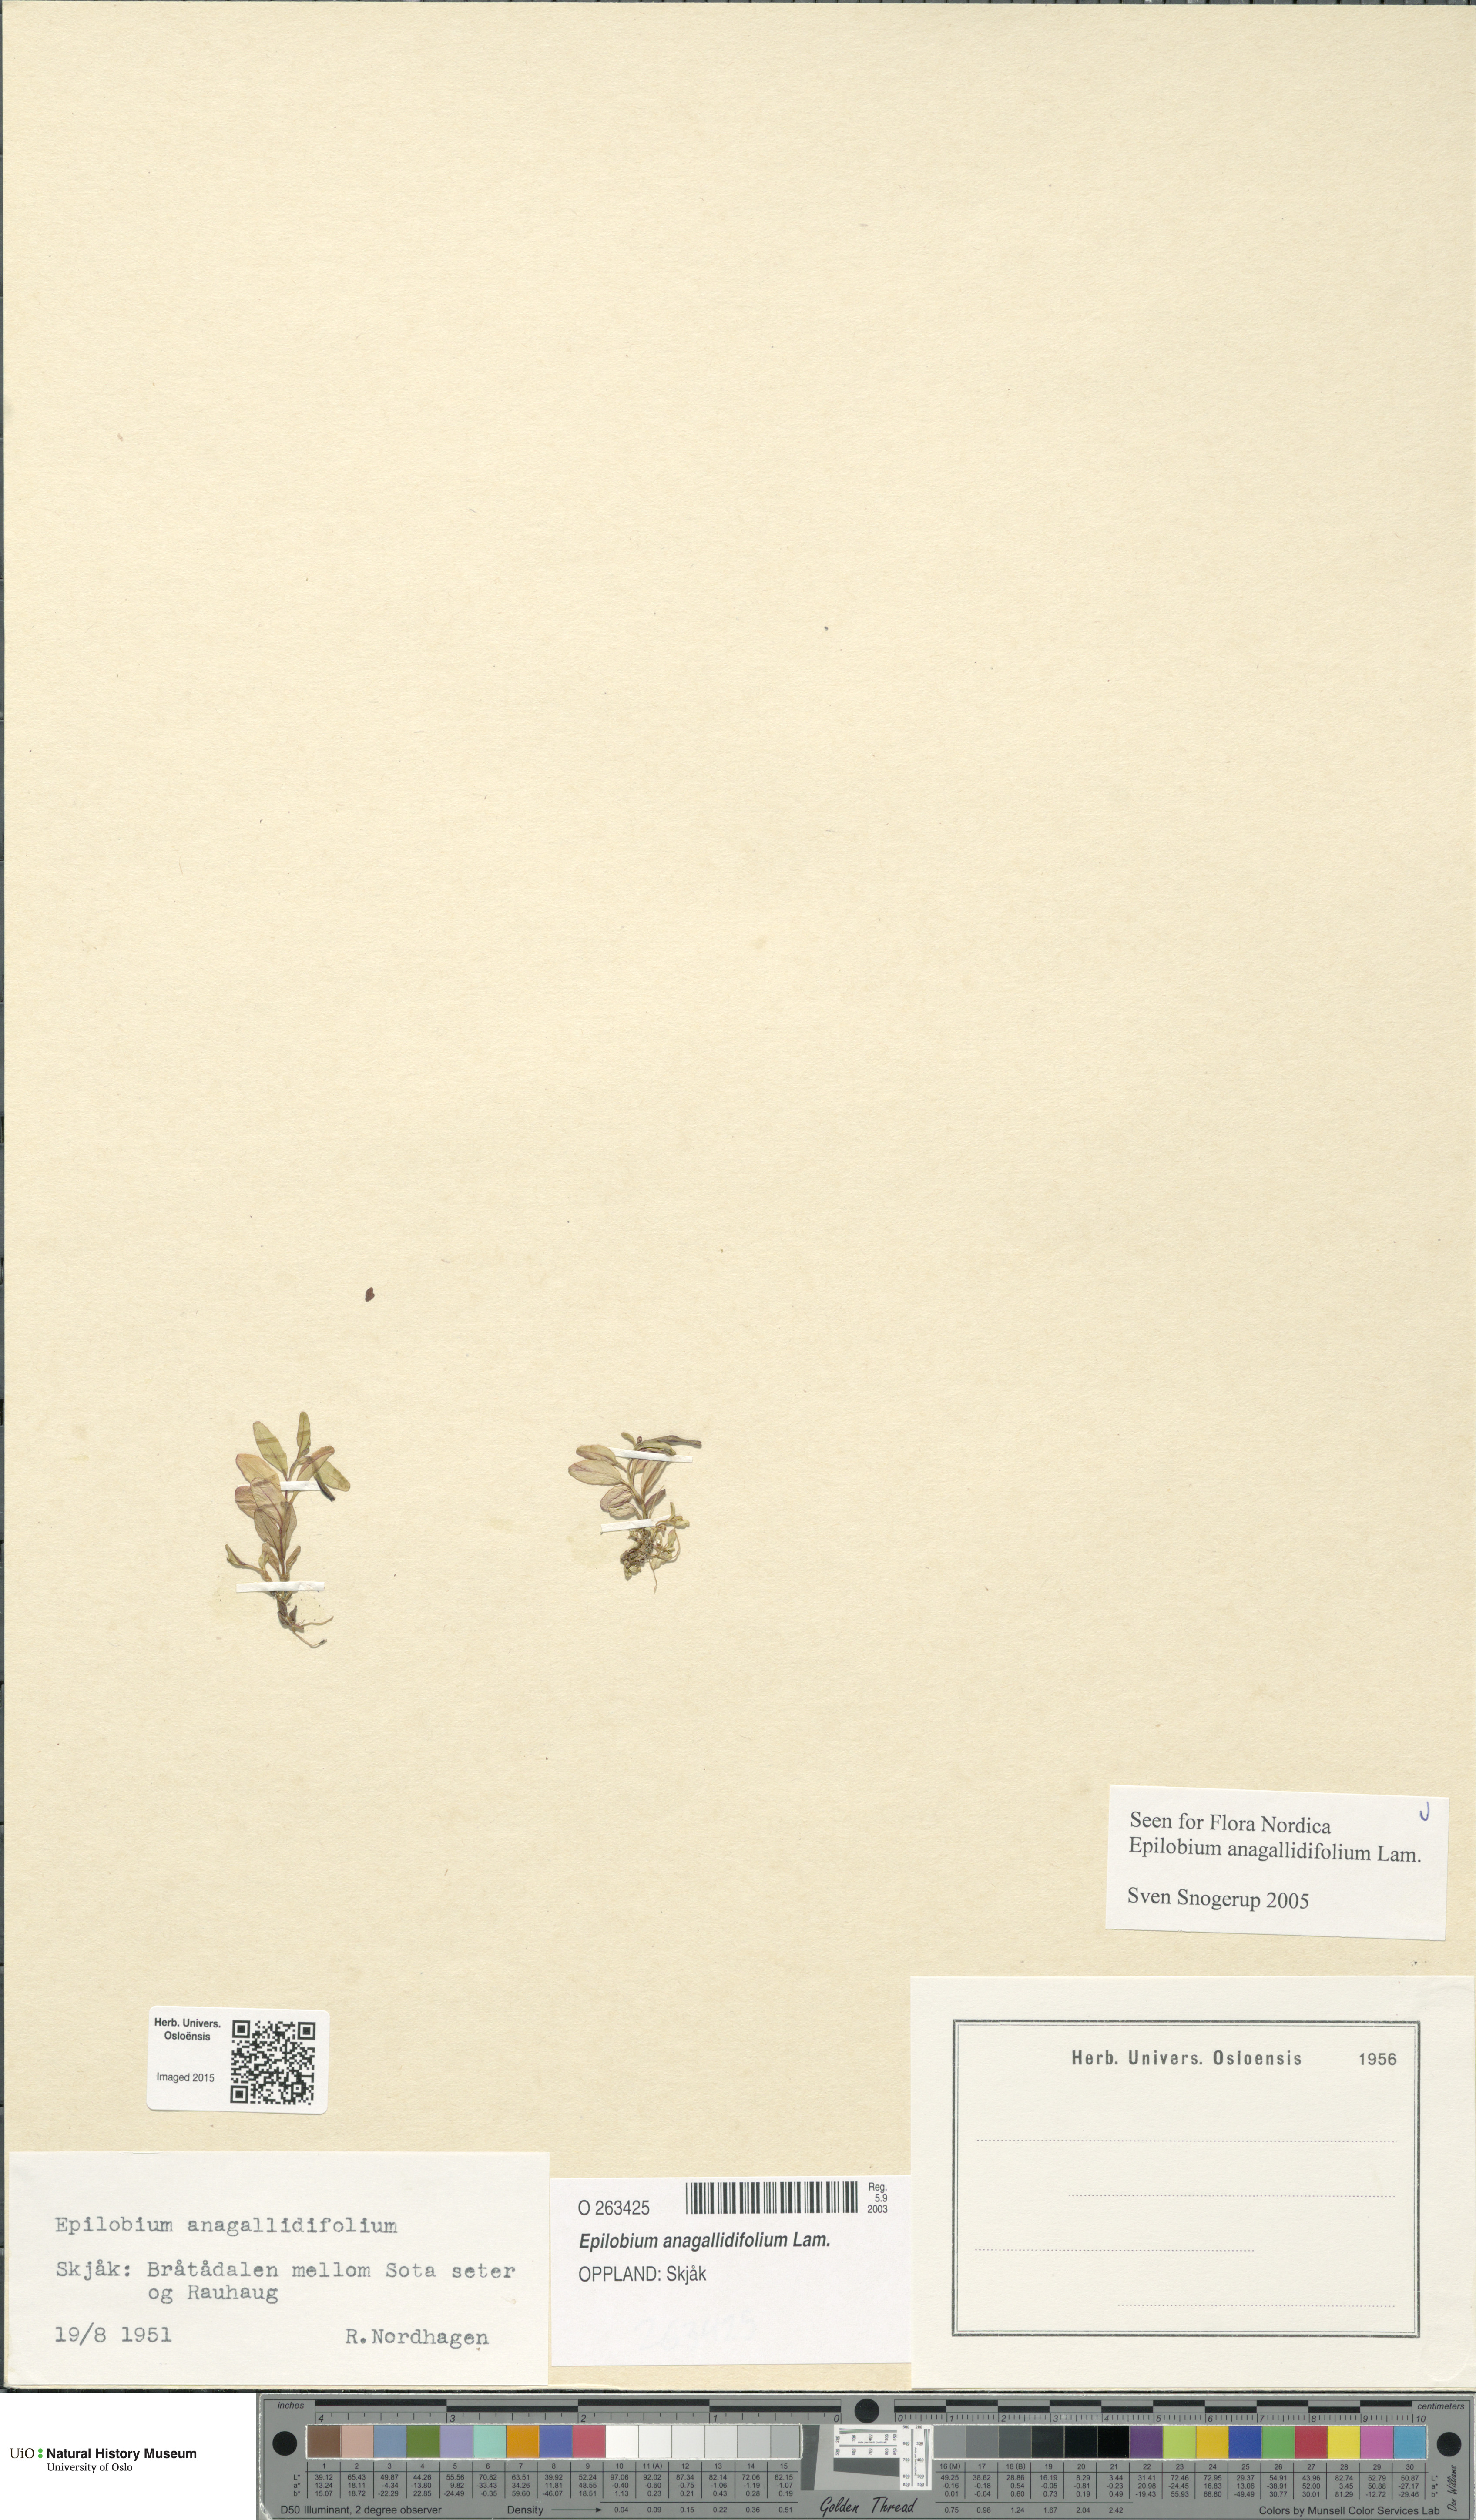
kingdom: Plantae
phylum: Tracheophyta
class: Magnoliopsida
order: Myrtales
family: Onagraceae
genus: Epilobium
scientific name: Epilobium anagallidifolium
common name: Alpine willowherb
